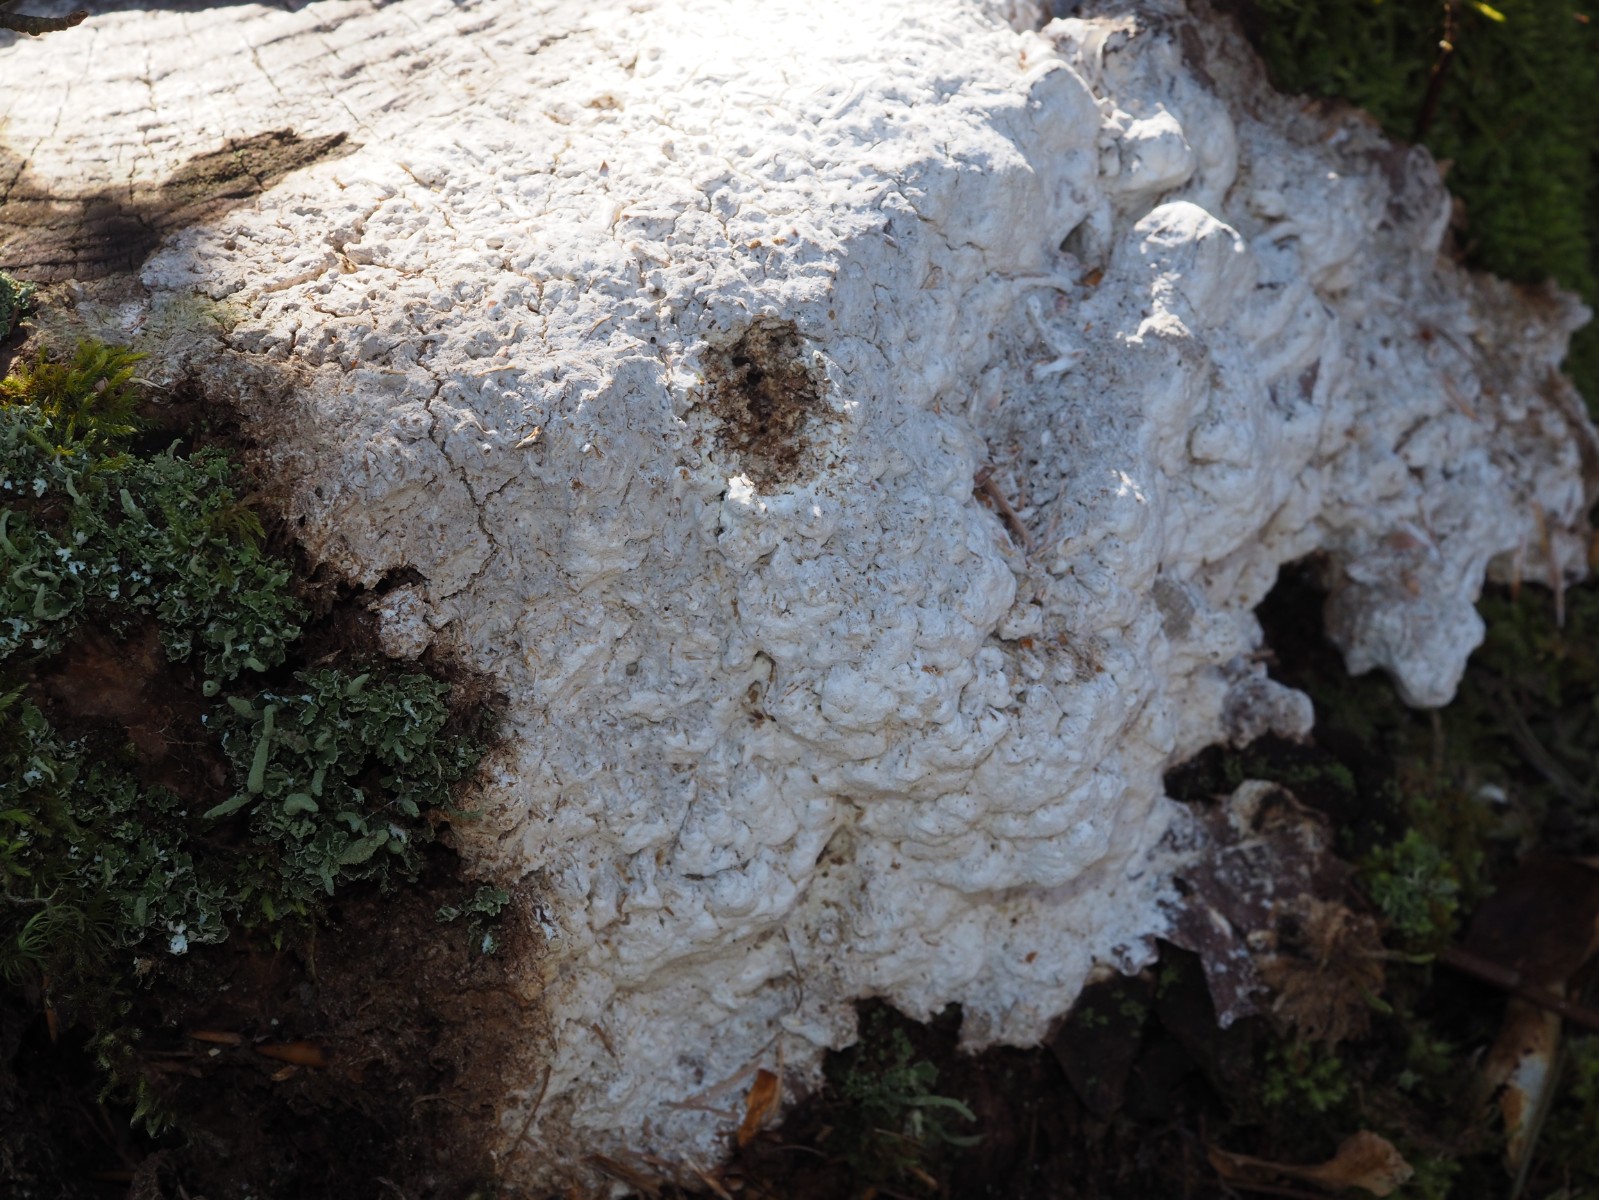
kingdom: Fungi
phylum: Basidiomycota
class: Agaricomycetes
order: Polyporales
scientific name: Polyporales
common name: poresvampordenen
